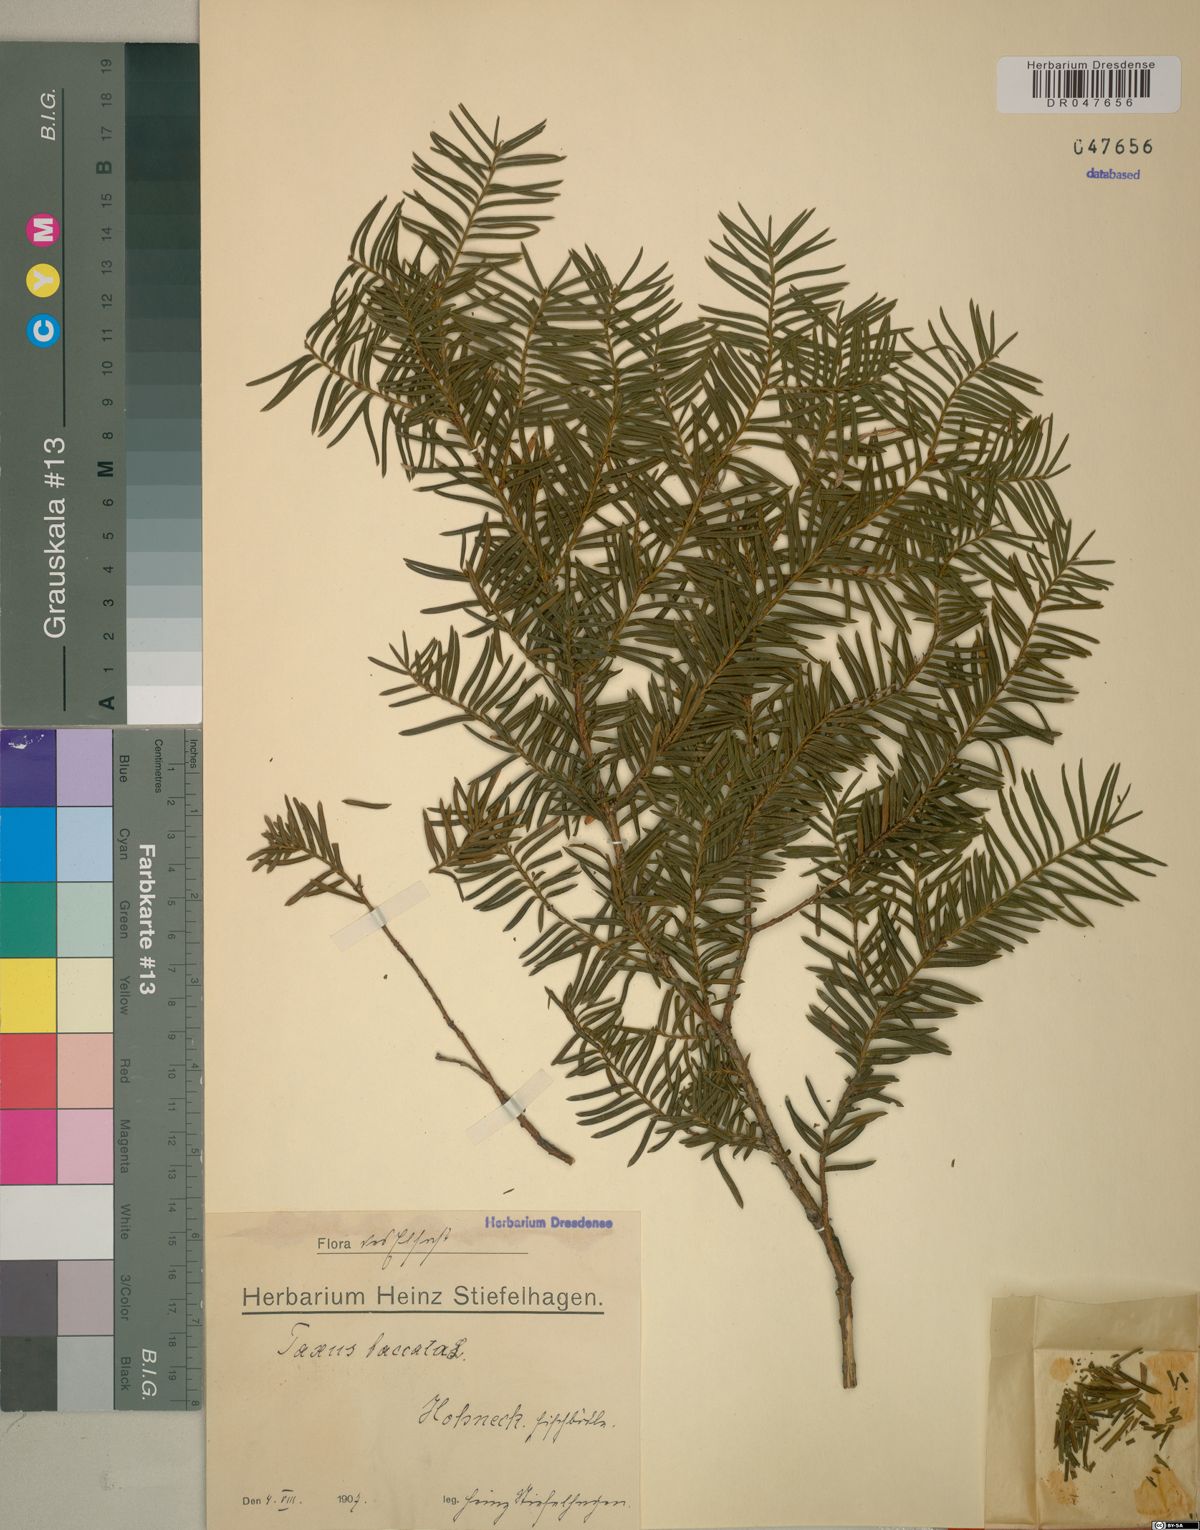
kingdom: Plantae
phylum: Tracheophyta
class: Pinopsida
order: Pinales
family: Taxaceae
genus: Taxus
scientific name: Taxus baccata
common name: Yew
